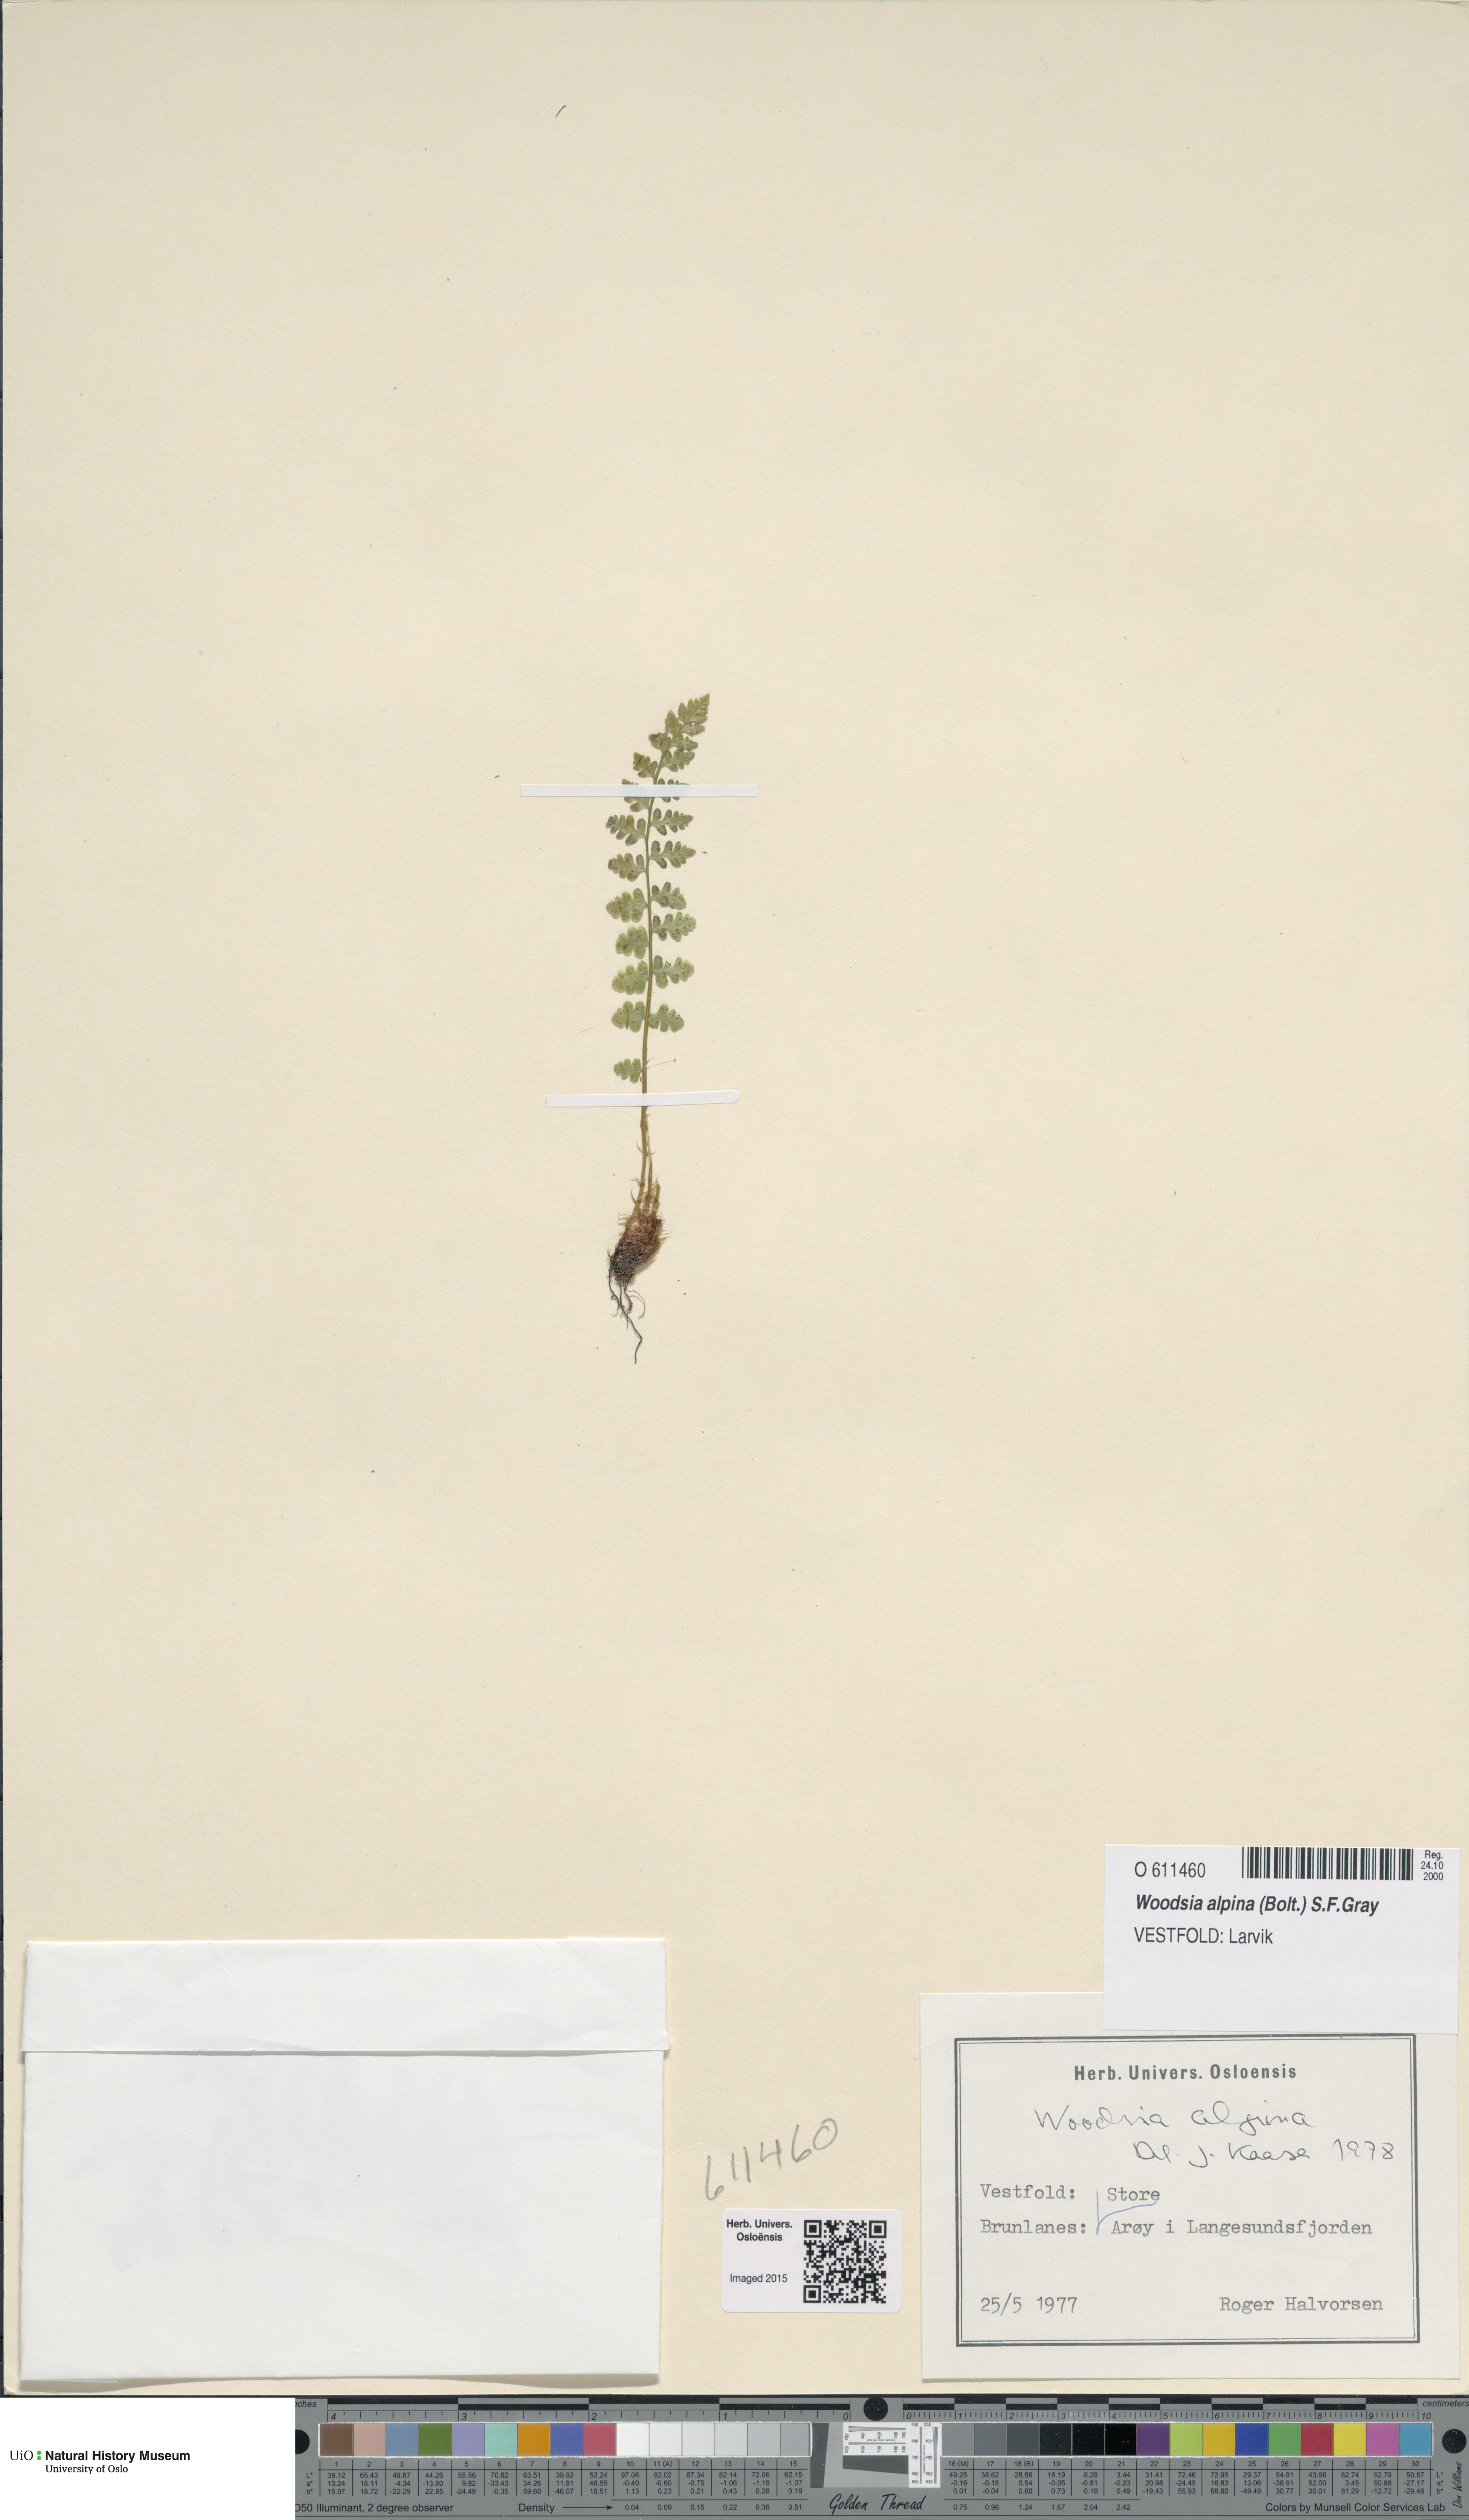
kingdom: Plantae
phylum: Tracheophyta
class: Polypodiopsida
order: Polypodiales
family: Woodsiaceae
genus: Woodsia
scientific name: Woodsia alpina
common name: Alpine woodsia
